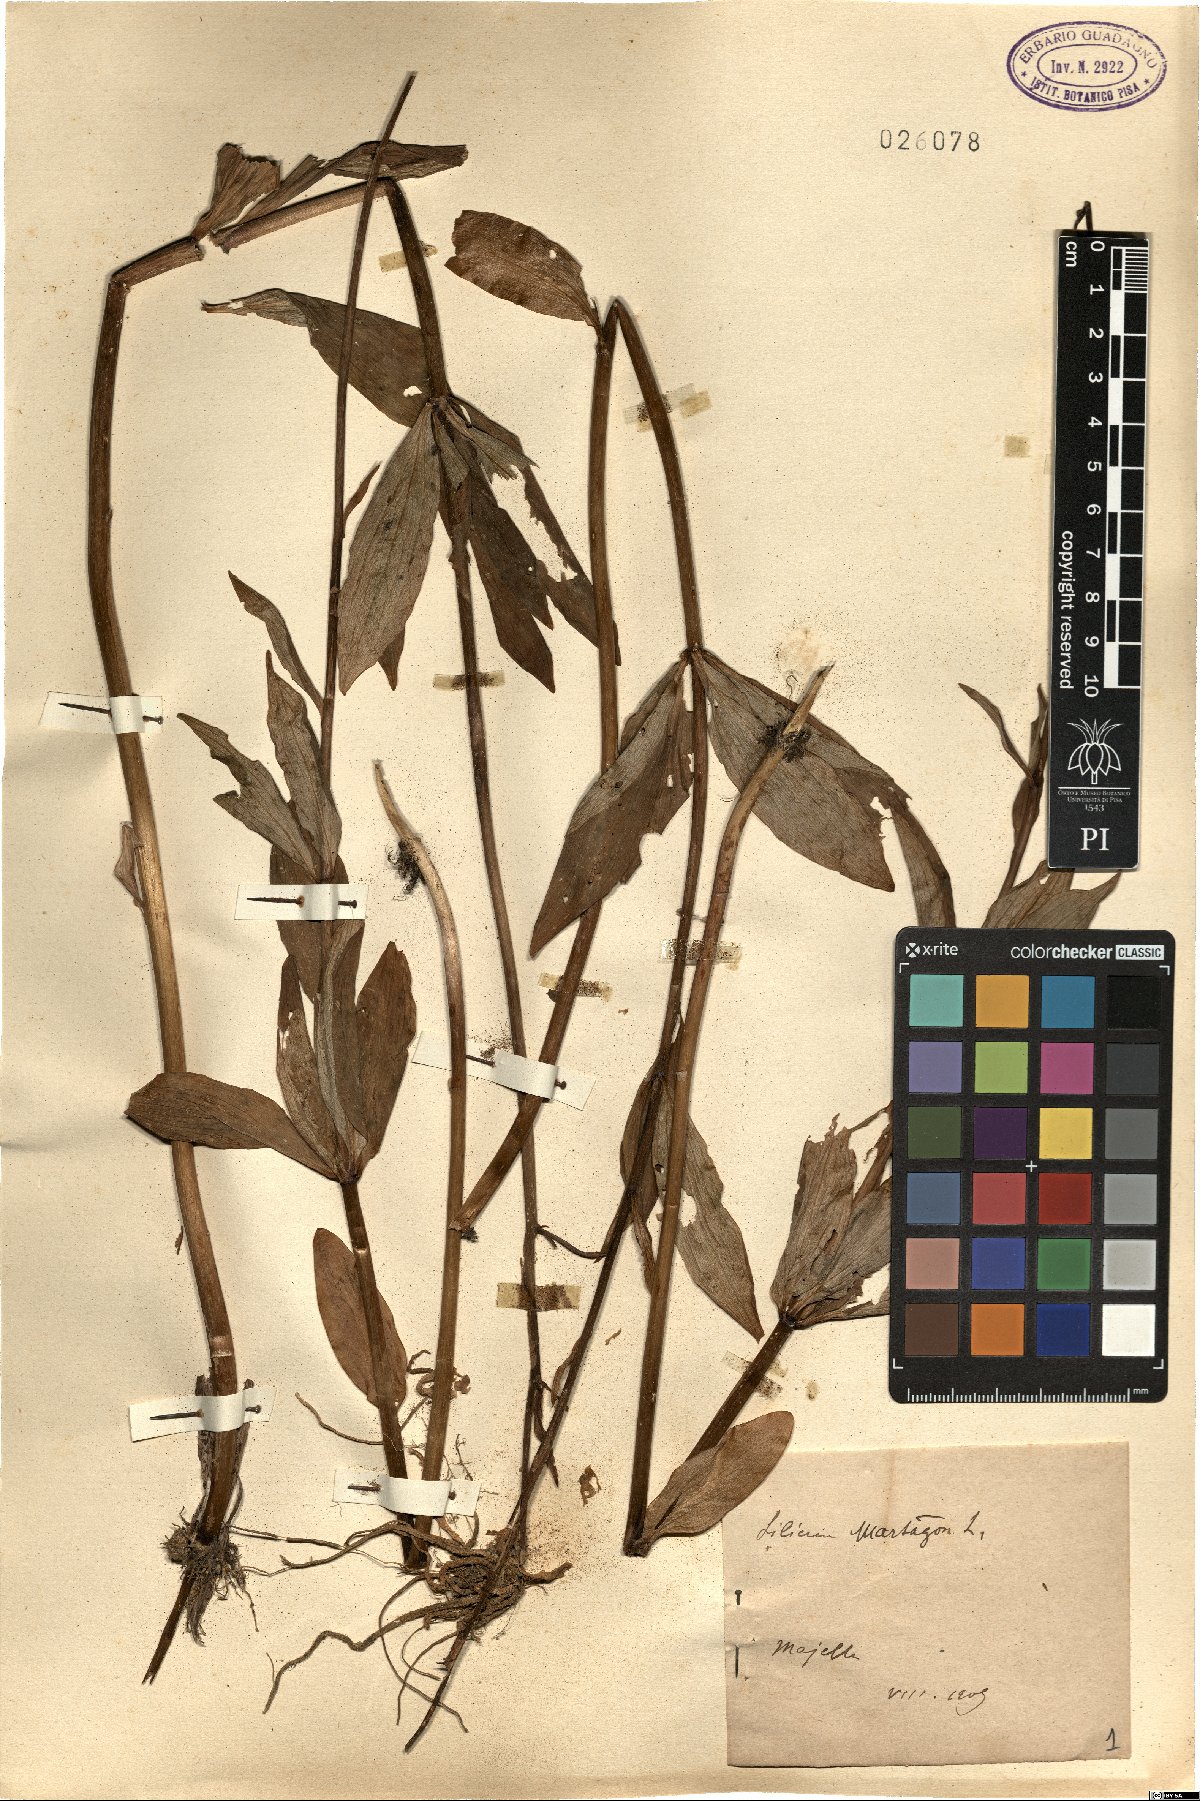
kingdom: Plantae
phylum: Tracheophyta
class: Liliopsida
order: Liliales
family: Liliaceae
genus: Lilium
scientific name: Lilium martagon
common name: Martagon lily
